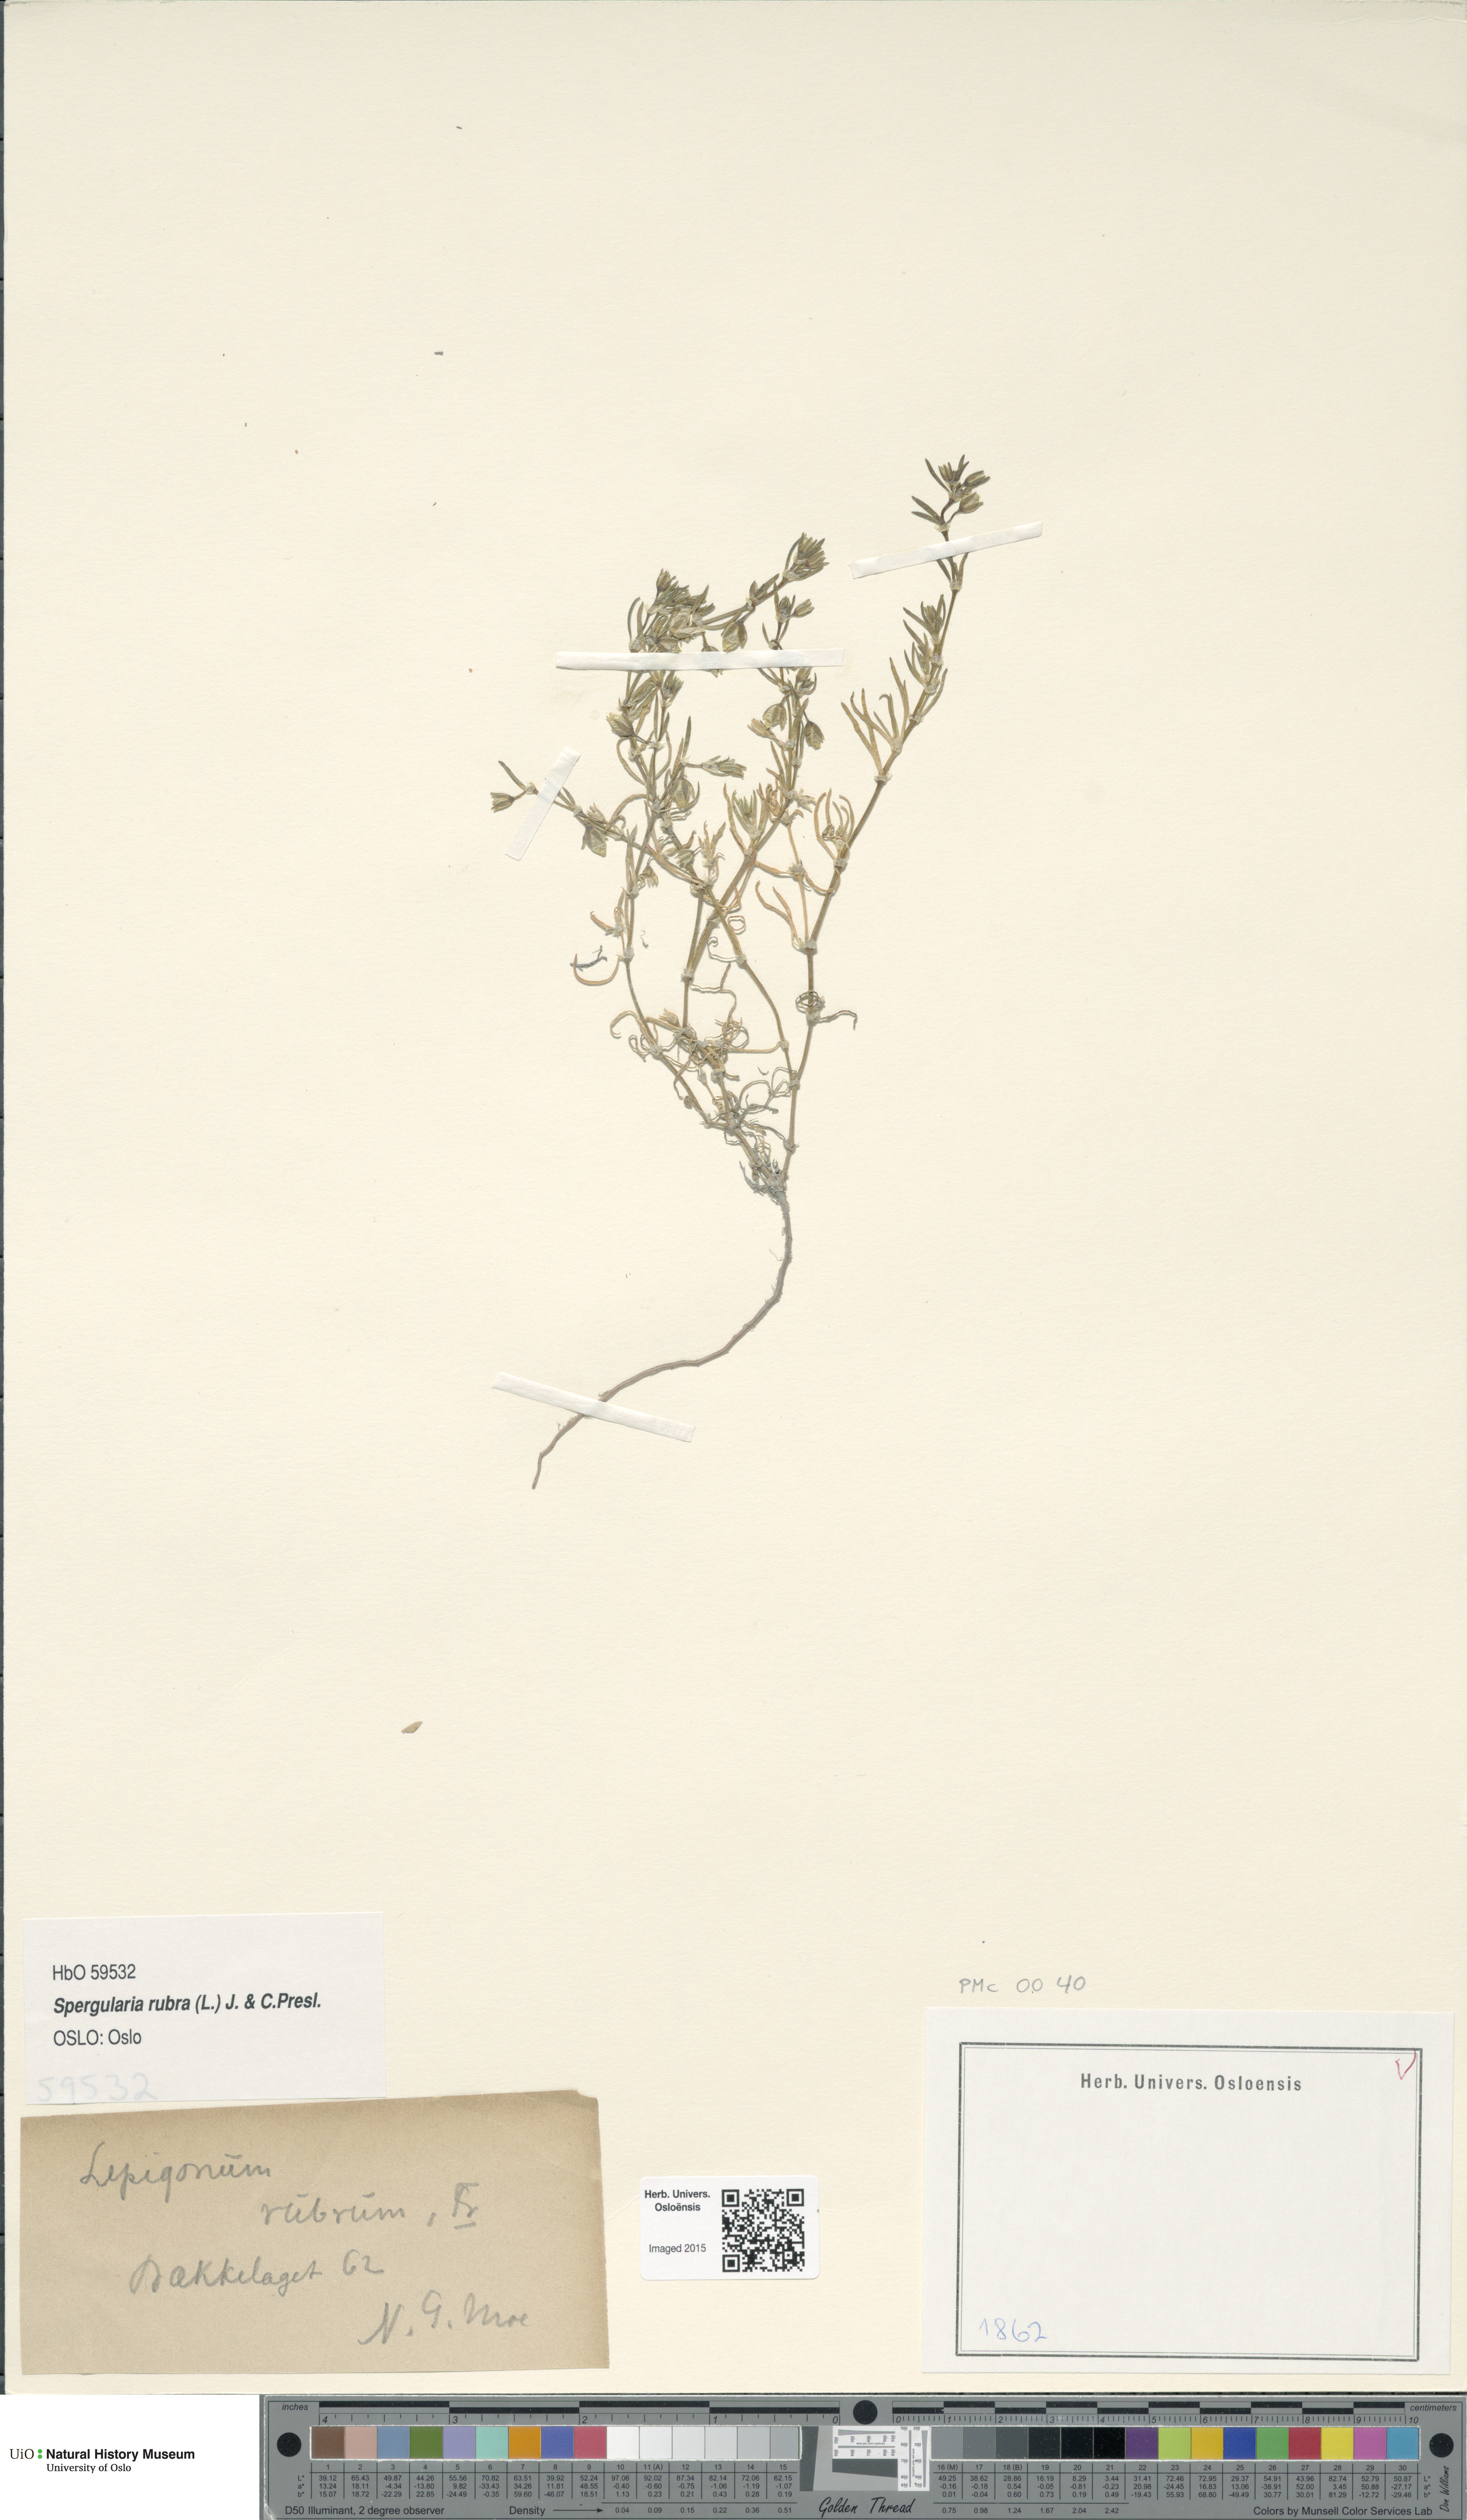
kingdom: Plantae
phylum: Tracheophyta
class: Magnoliopsida
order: Caryophyllales
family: Caryophyllaceae
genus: Spergularia
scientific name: Spergularia rubra
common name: Red sand-spurrey
